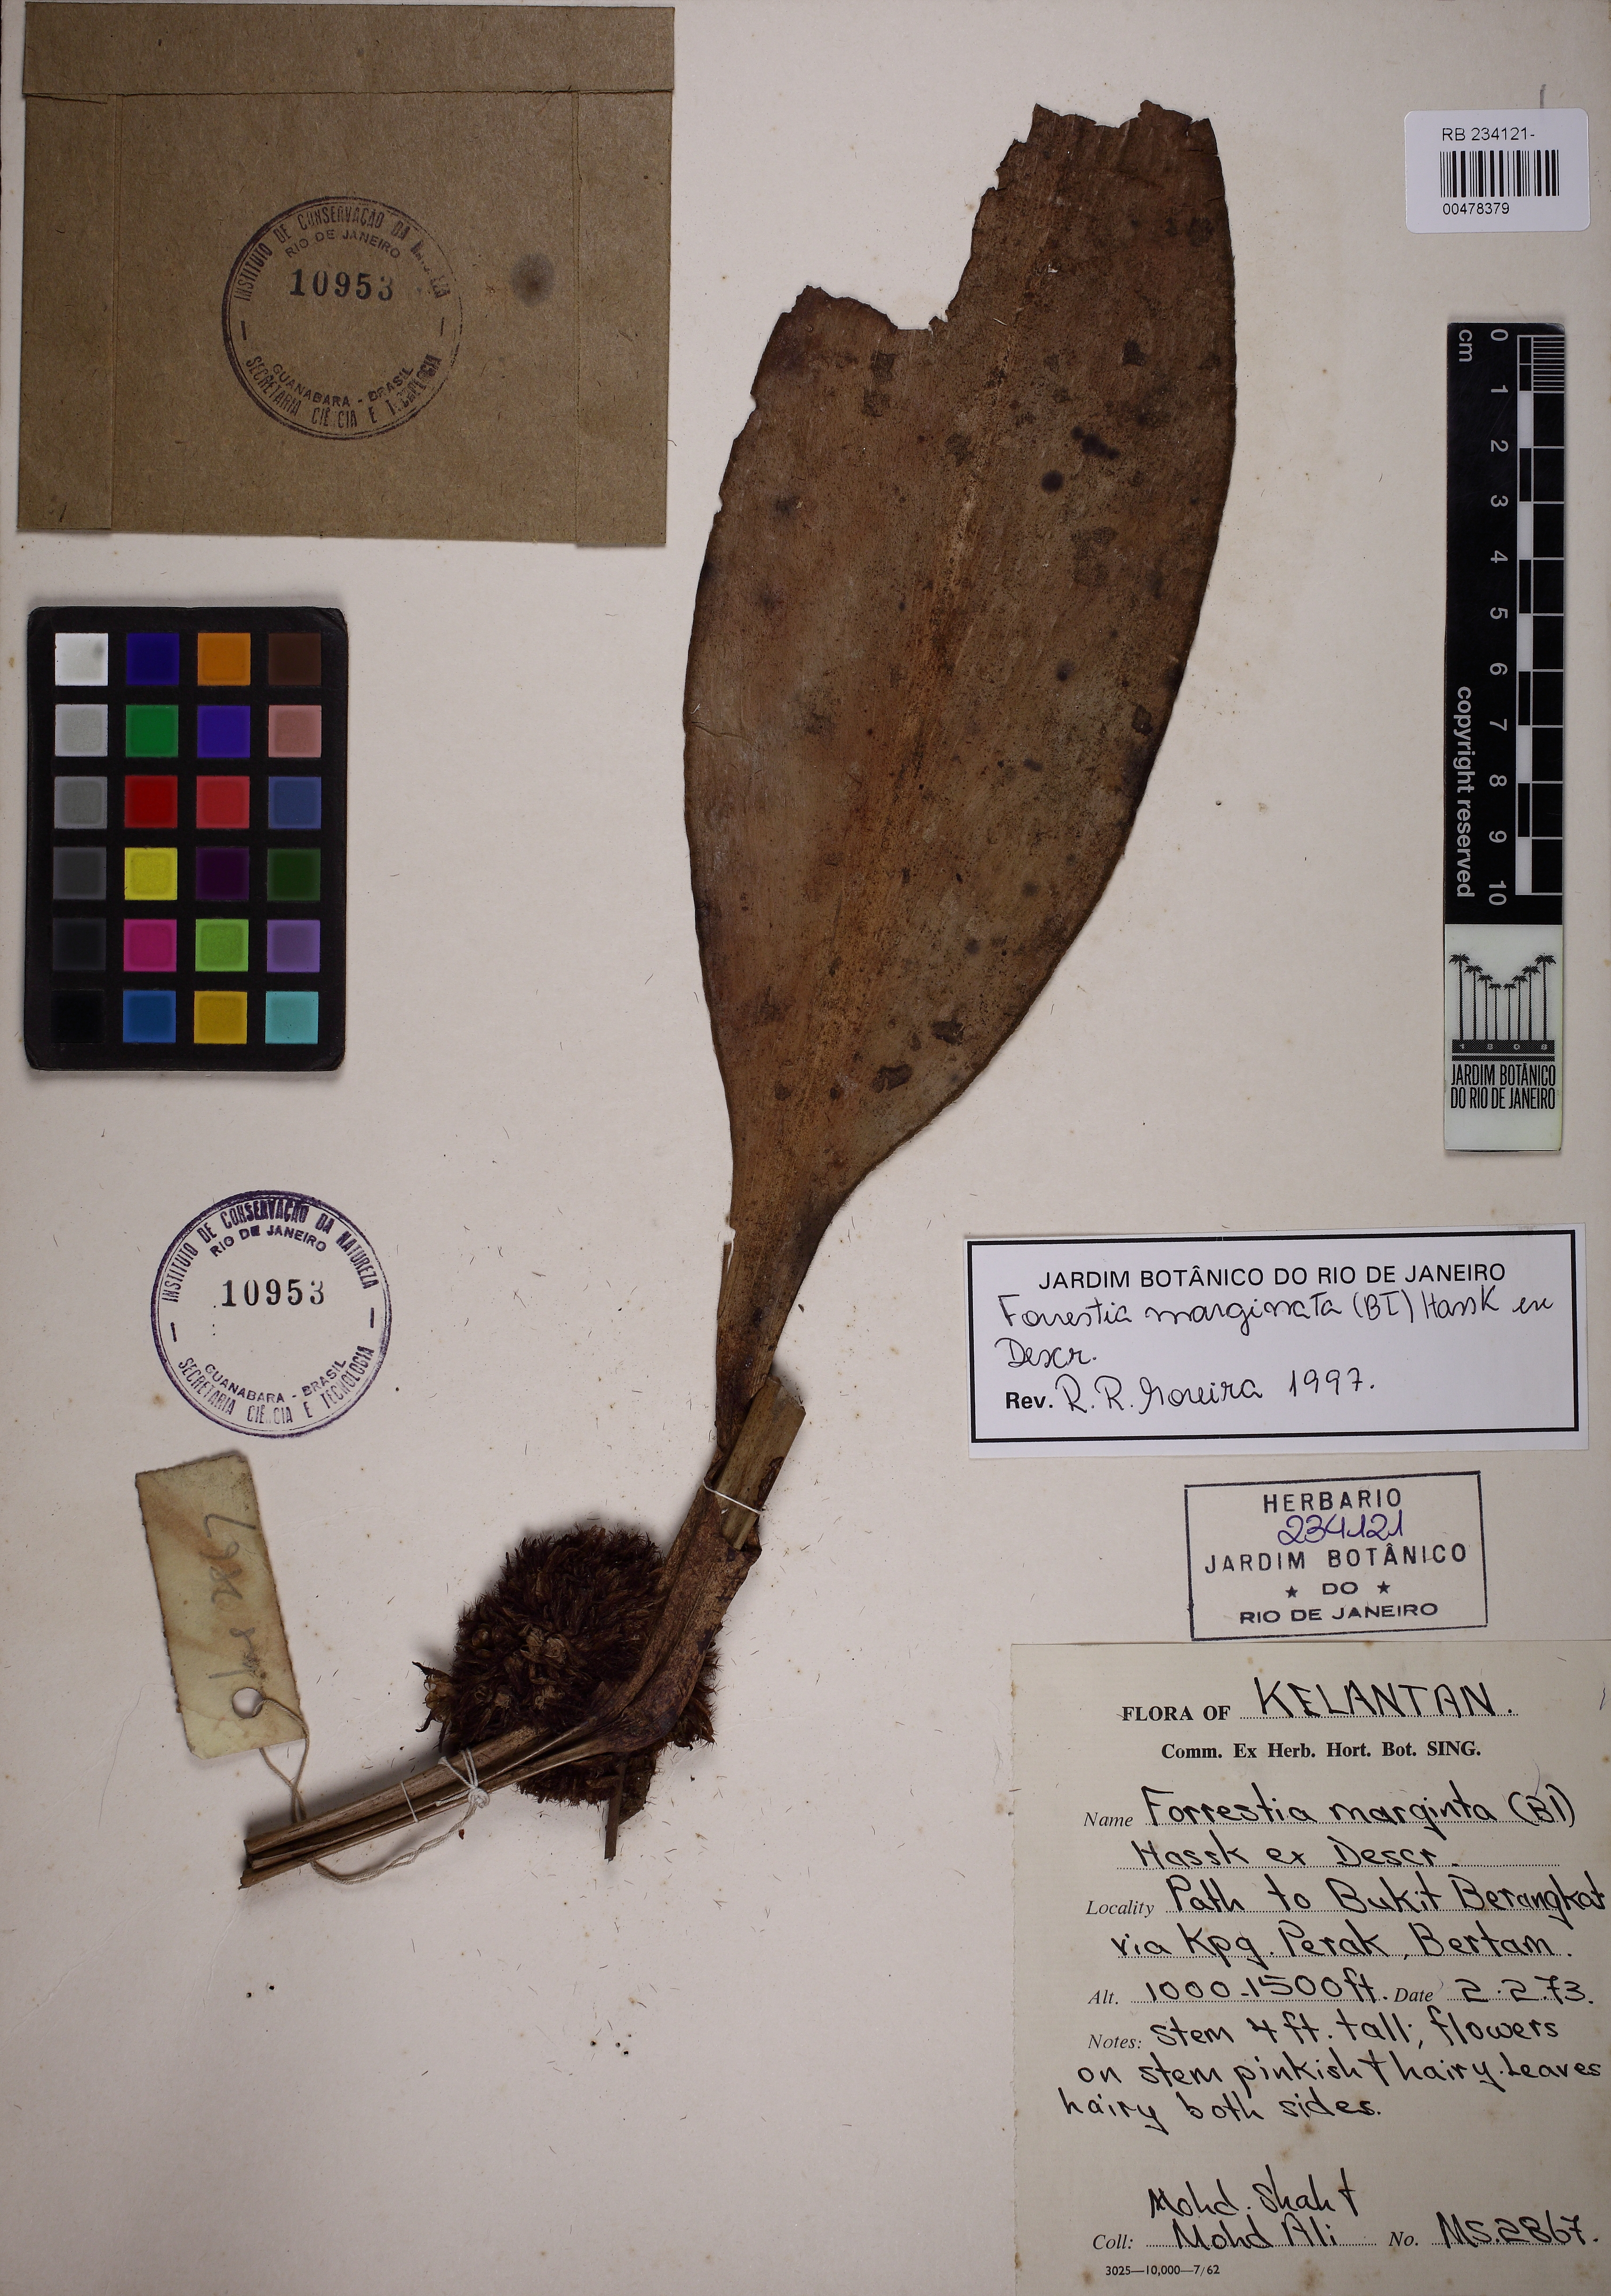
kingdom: Plantae
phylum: Tracheophyta
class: Liliopsida
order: Commelinales
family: Commelinaceae
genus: Amischotolype
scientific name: Amischotolype marginata
